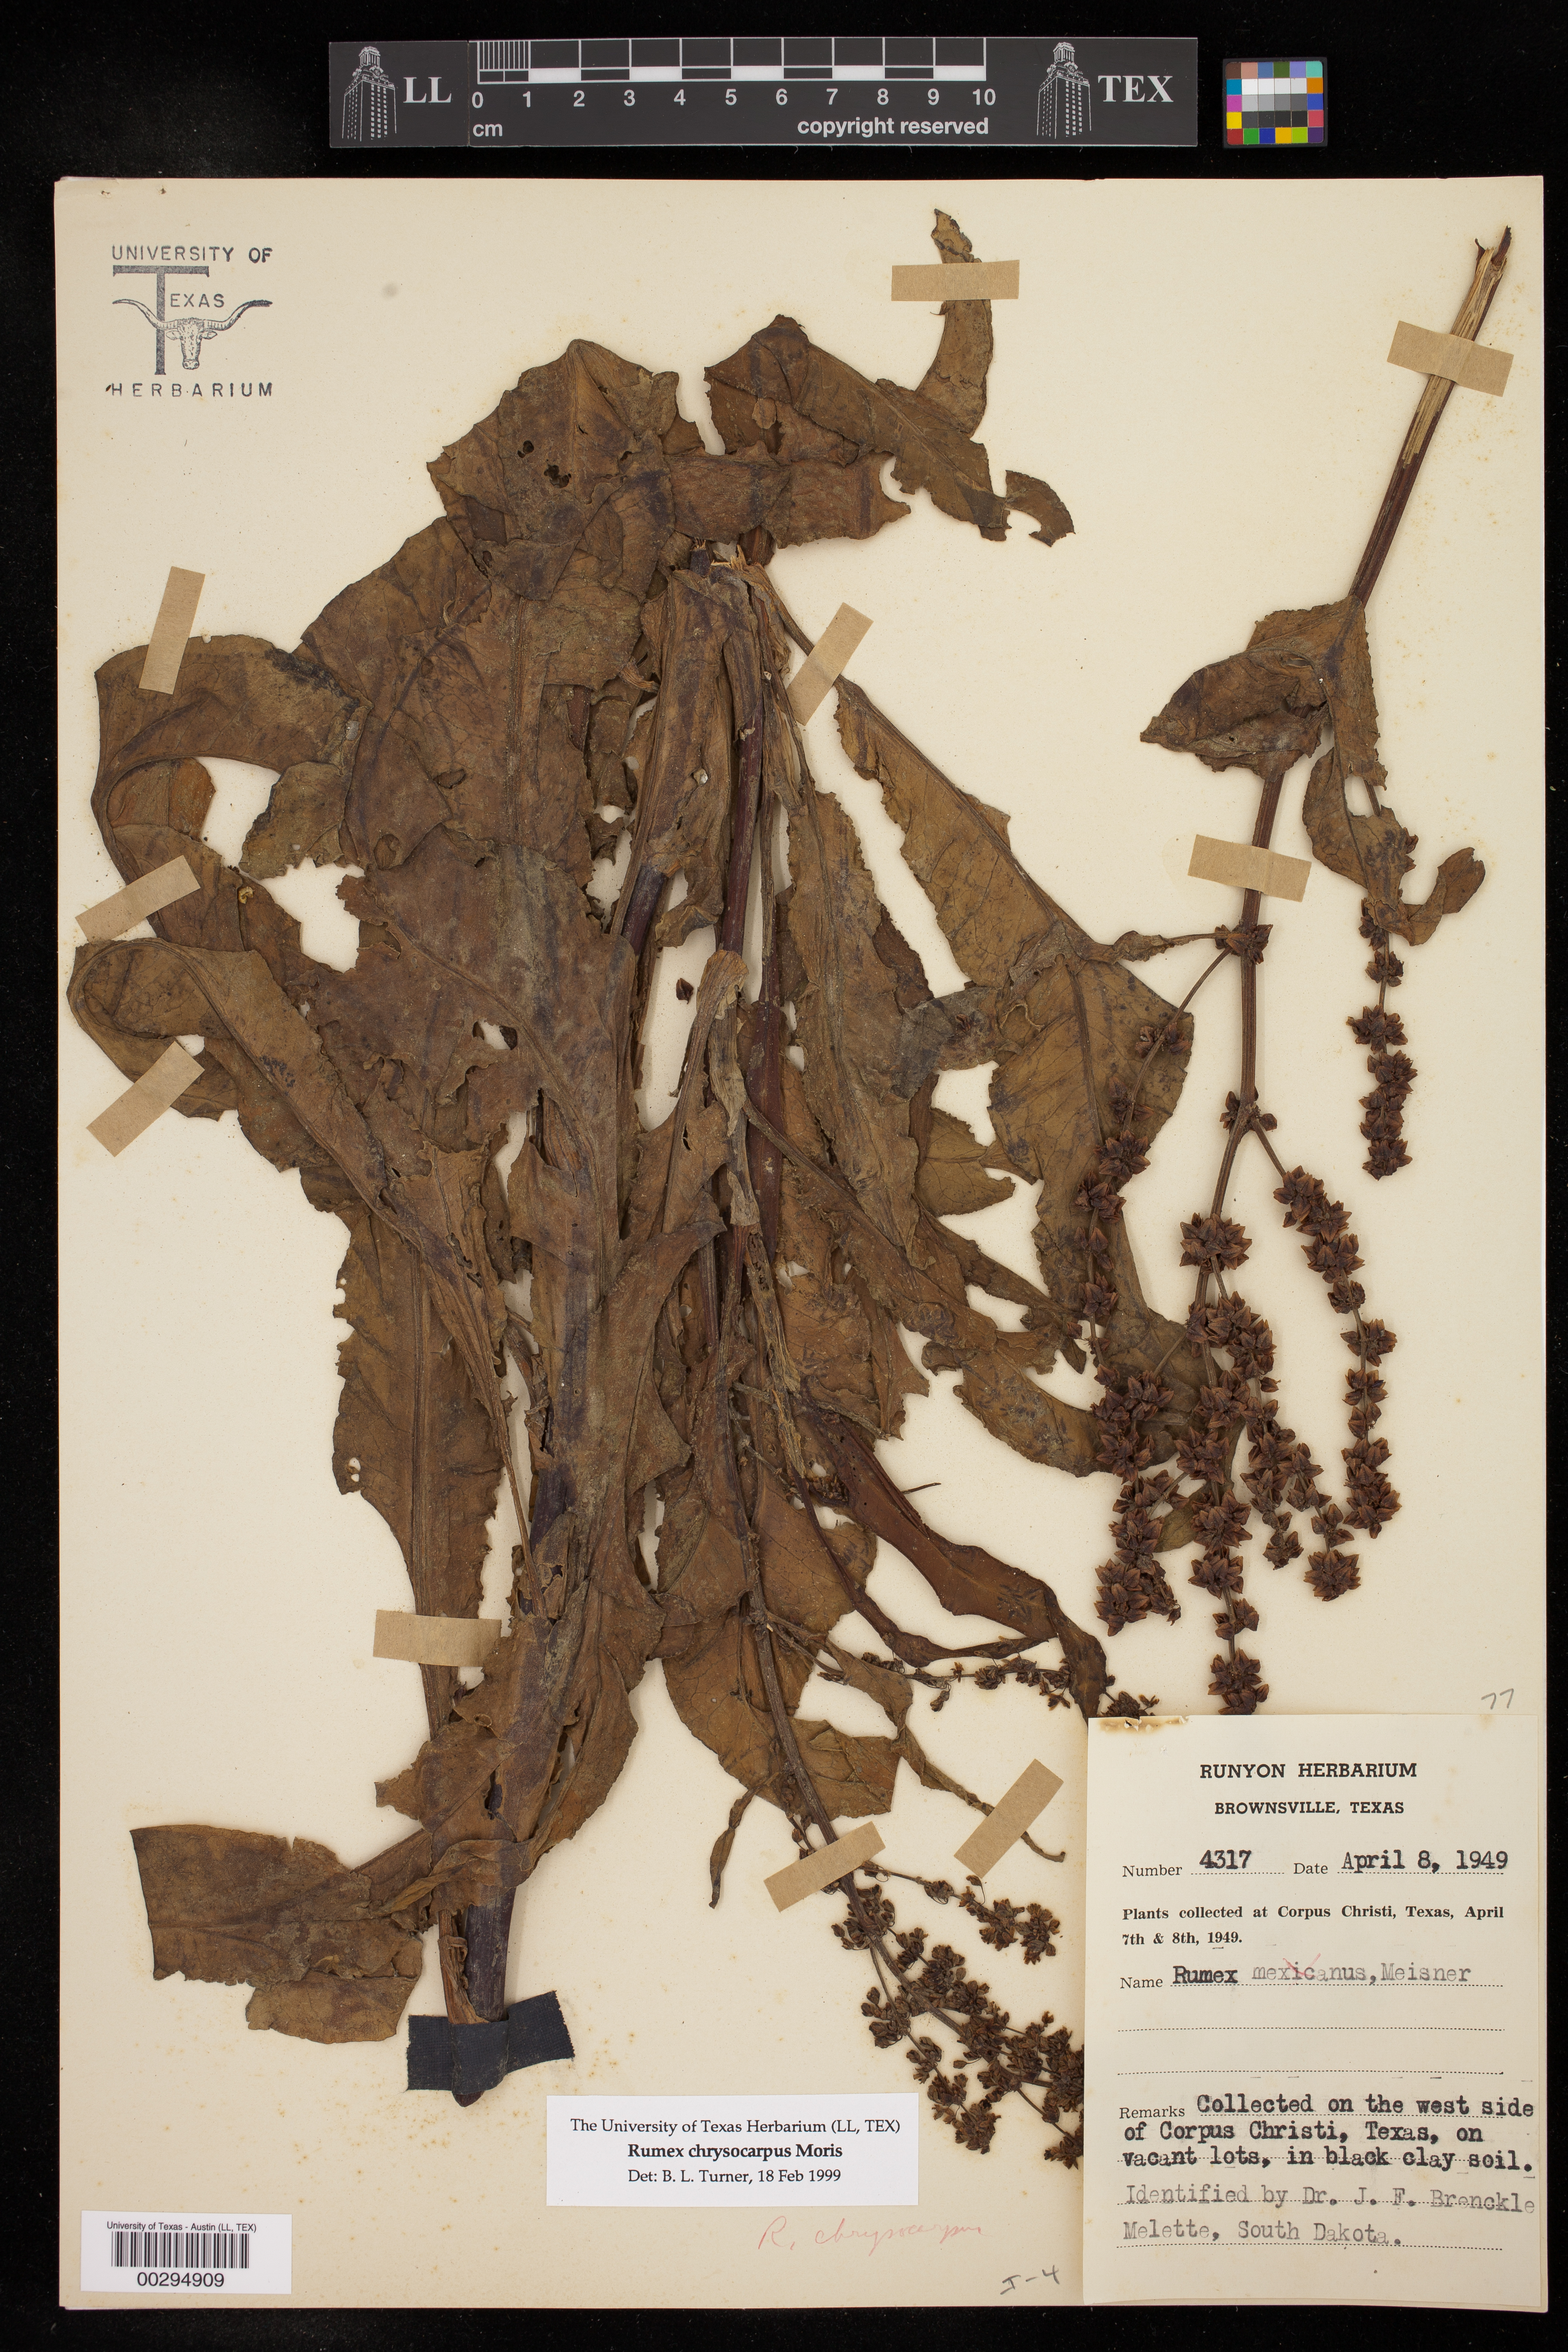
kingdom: Plantae
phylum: Tracheophyta
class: Magnoliopsida
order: Caryophyllales
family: Polygonaceae
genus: Rumex
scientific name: Rumex chrysocarpus
